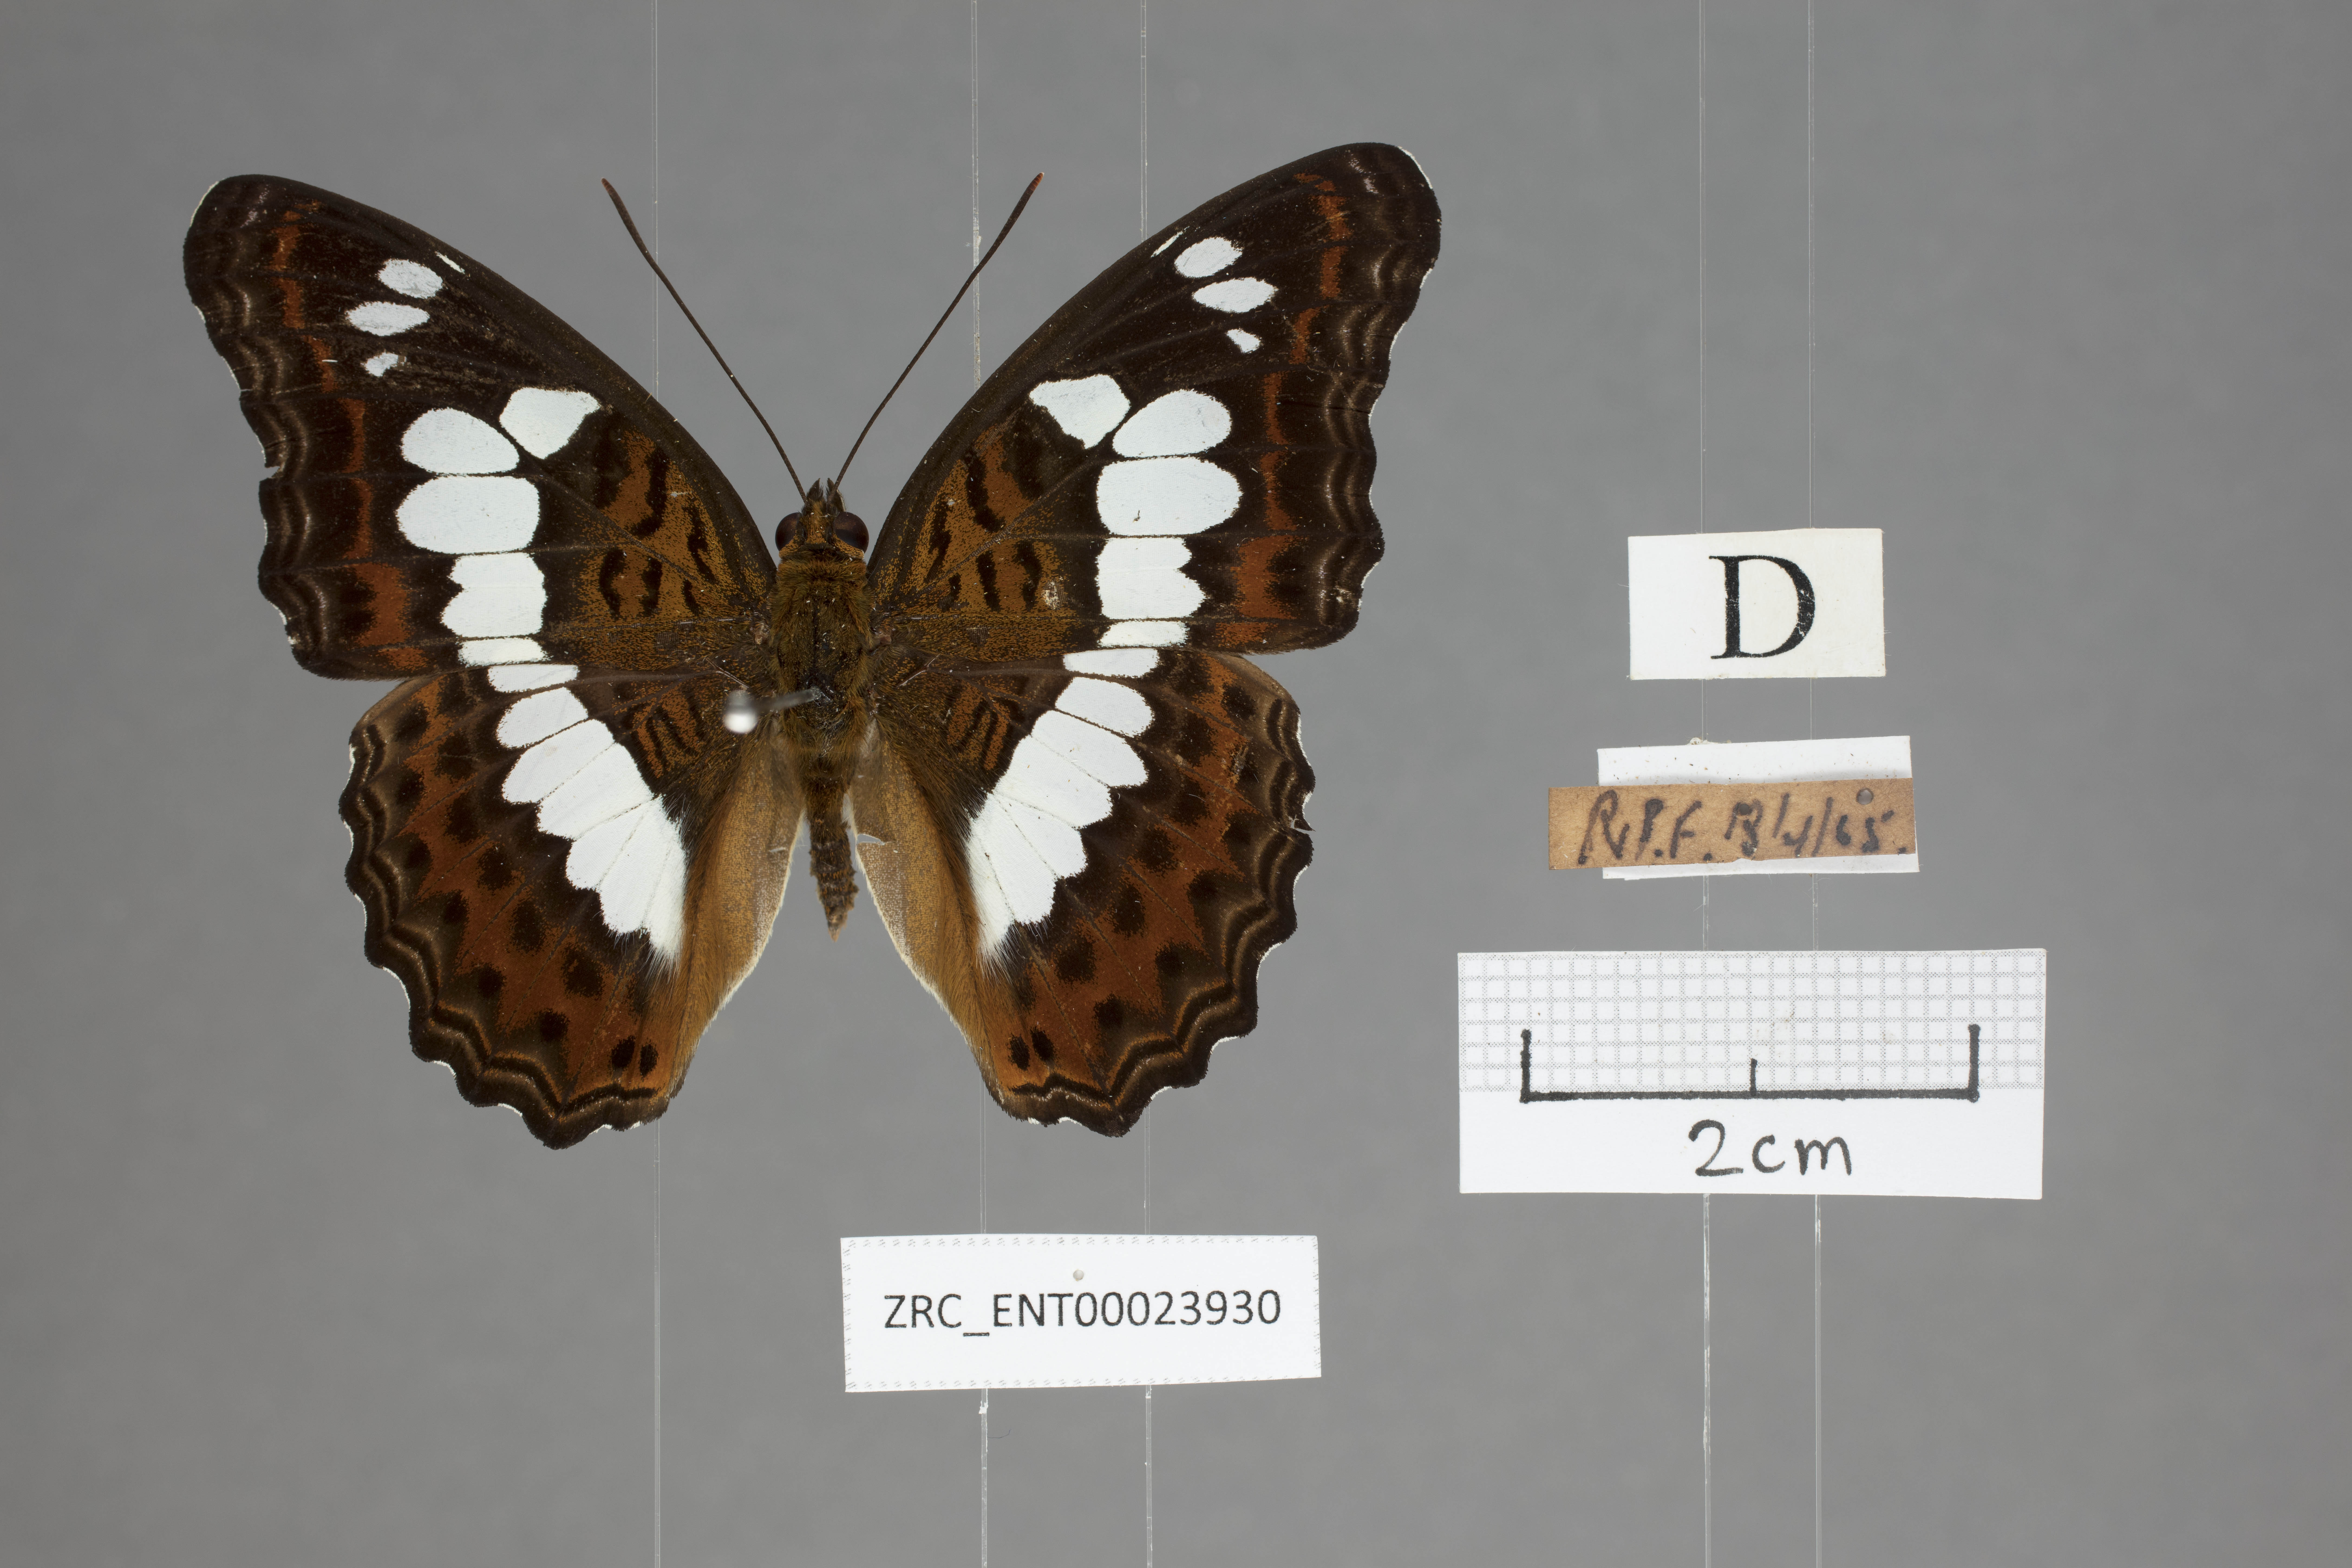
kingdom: Animalia
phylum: Arthropoda
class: Insecta
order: Lepidoptera
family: Nymphalidae
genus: Limenitis
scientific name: Limenitis Moduza procris
